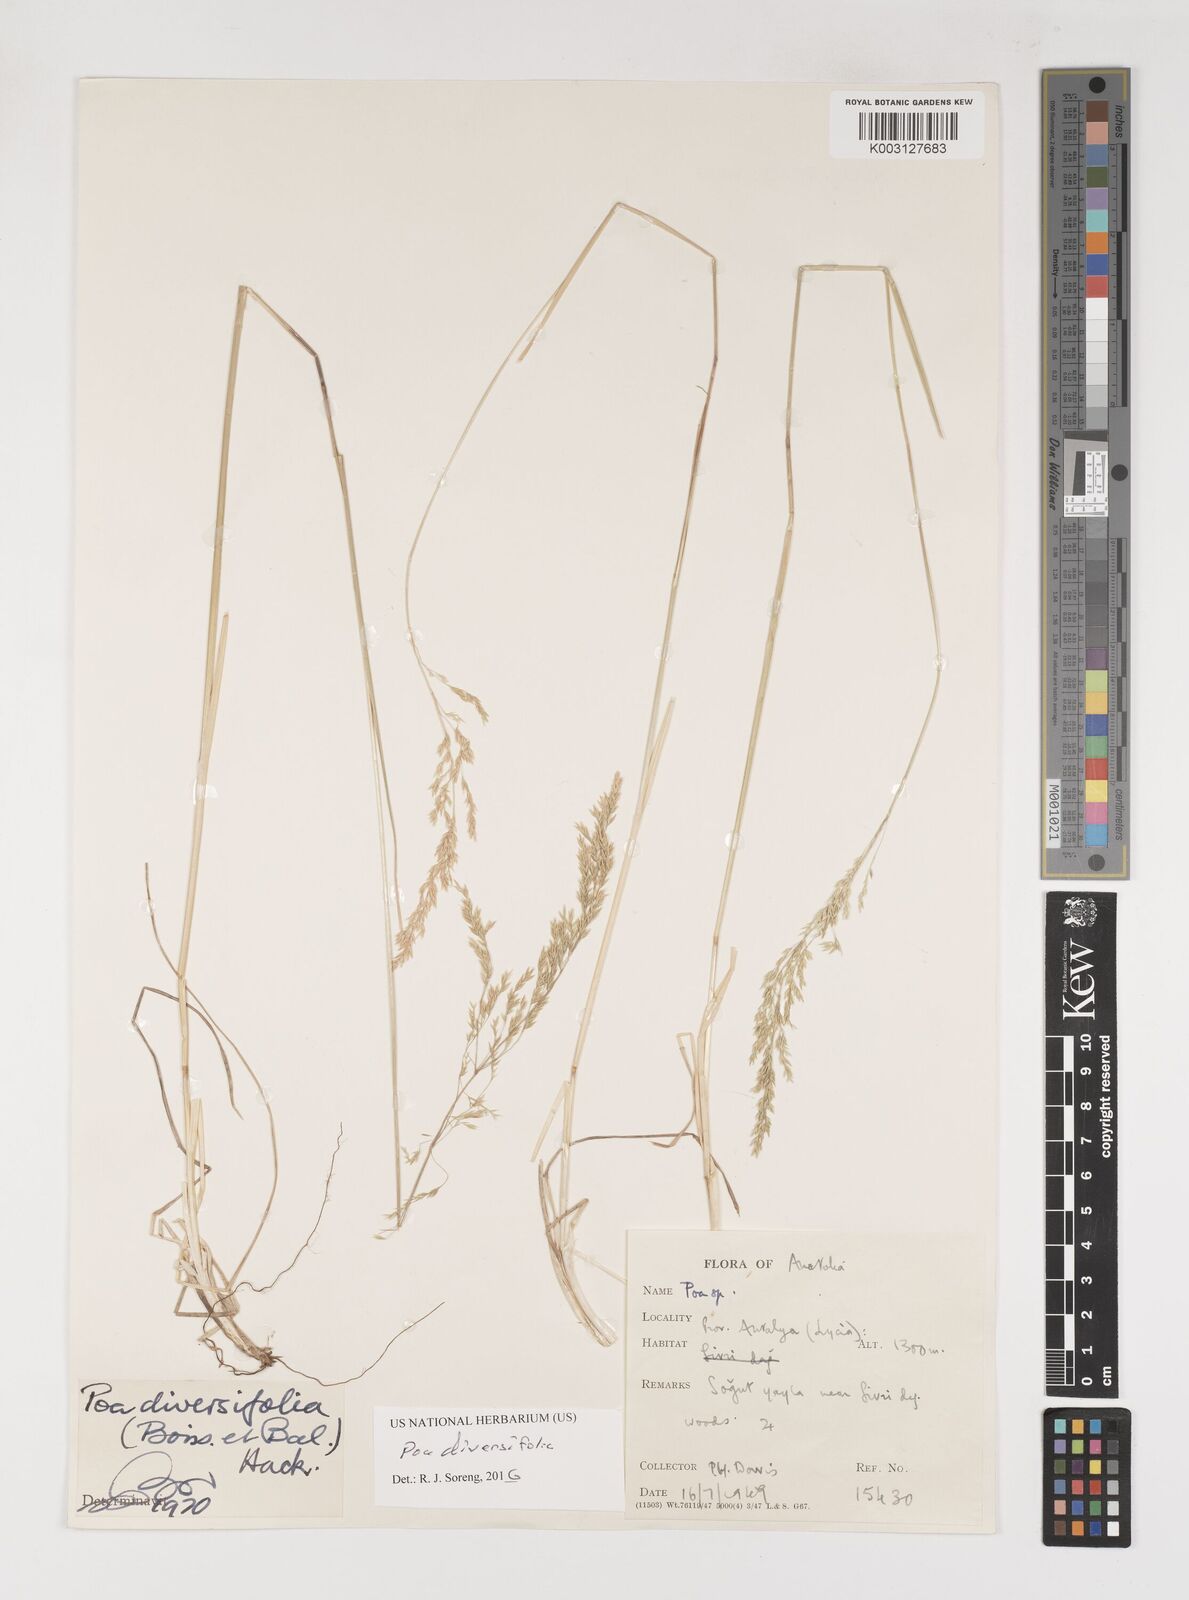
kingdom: Plantae
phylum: Tracheophyta
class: Liliopsida
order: Poales
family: Poaceae
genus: Poa
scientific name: Poa diversifolia
